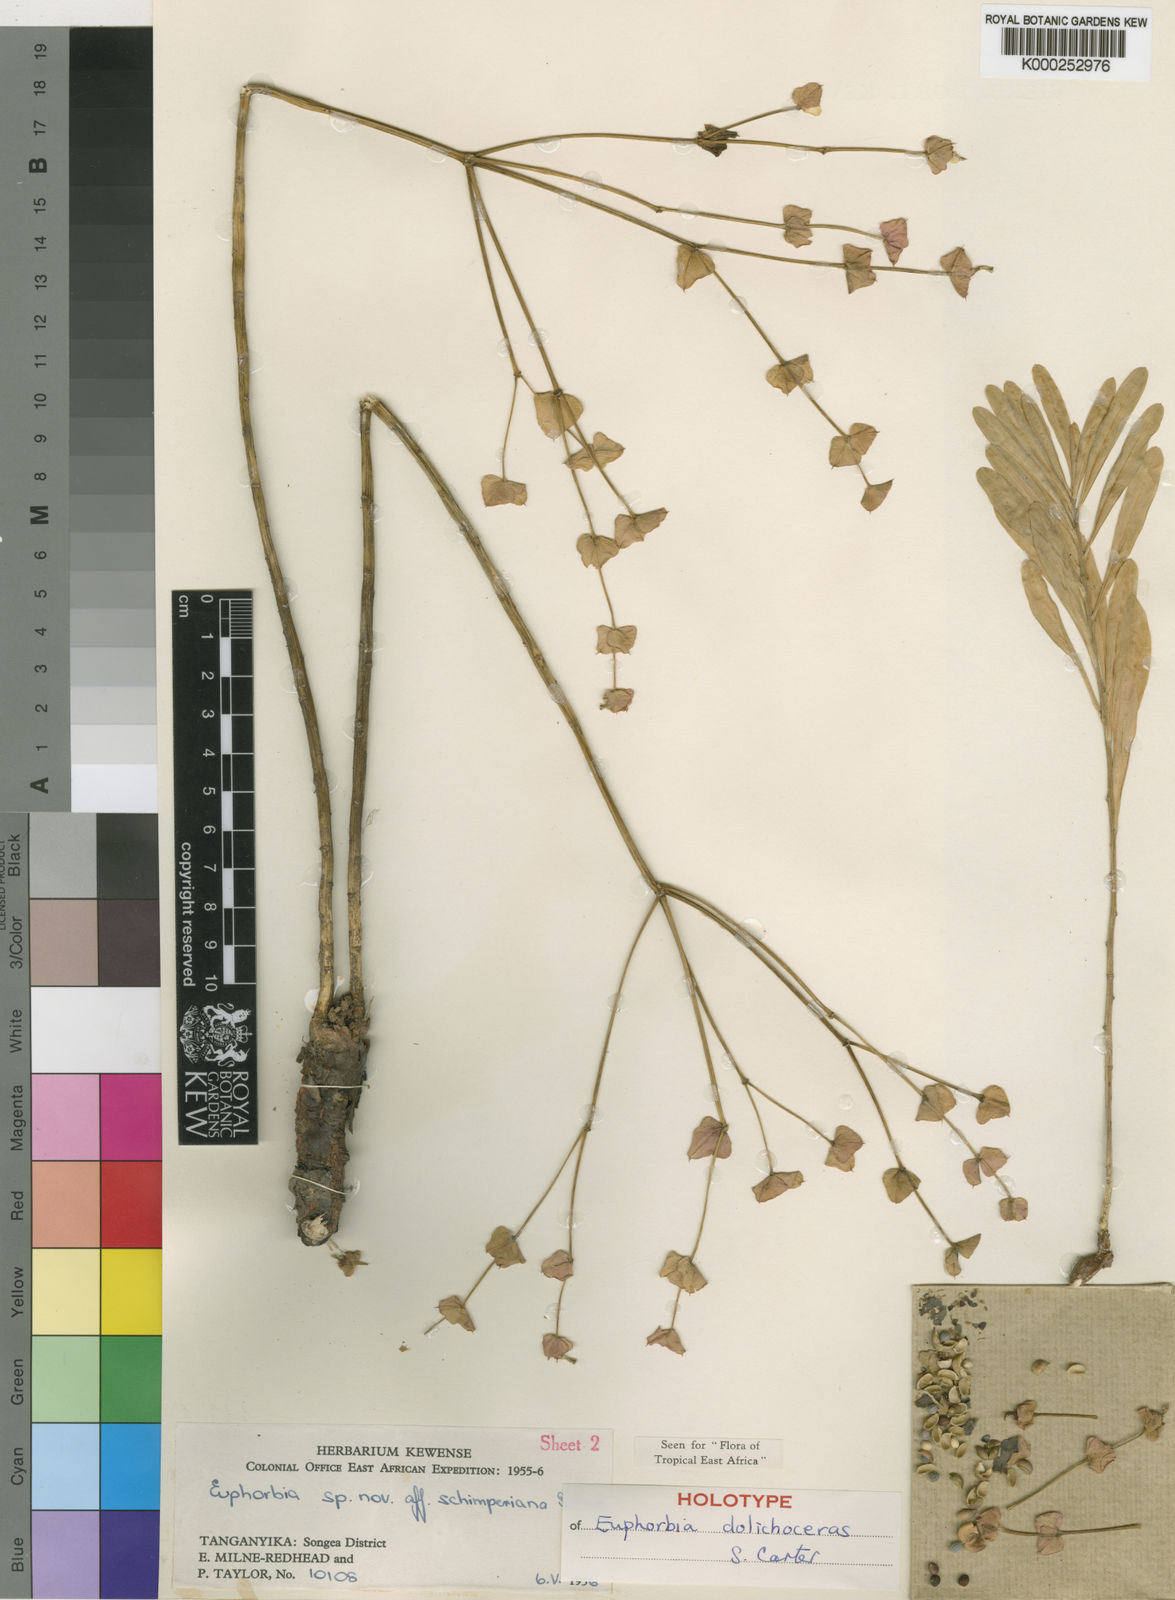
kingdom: Plantae
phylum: Tracheophyta
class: Magnoliopsida
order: Malpighiales
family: Euphorbiaceae
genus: Euphorbia
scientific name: Euphorbia dolichoceras
